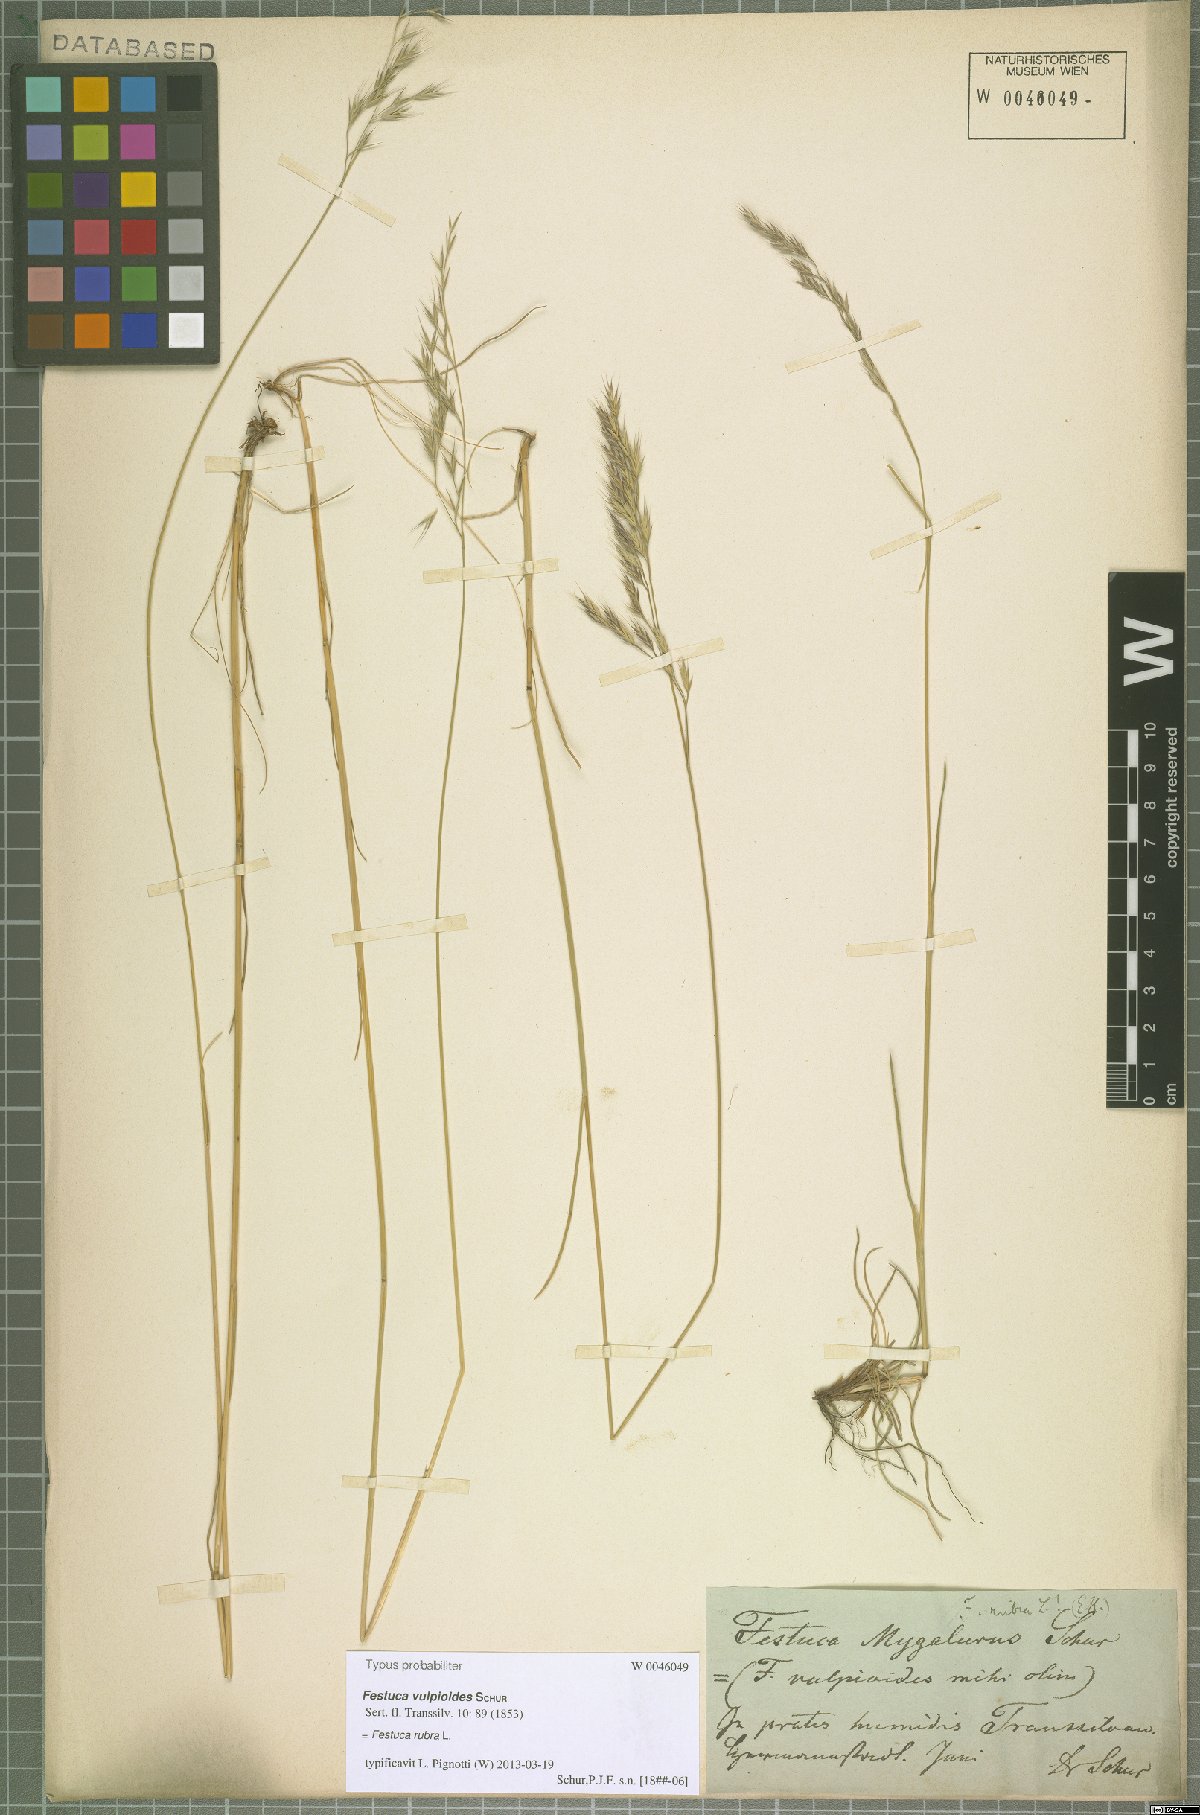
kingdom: Plantae
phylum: Tracheophyta
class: Liliopsida
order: Poales
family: Poaceae
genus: Festuca
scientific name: Festuca rubra
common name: Red fescue
